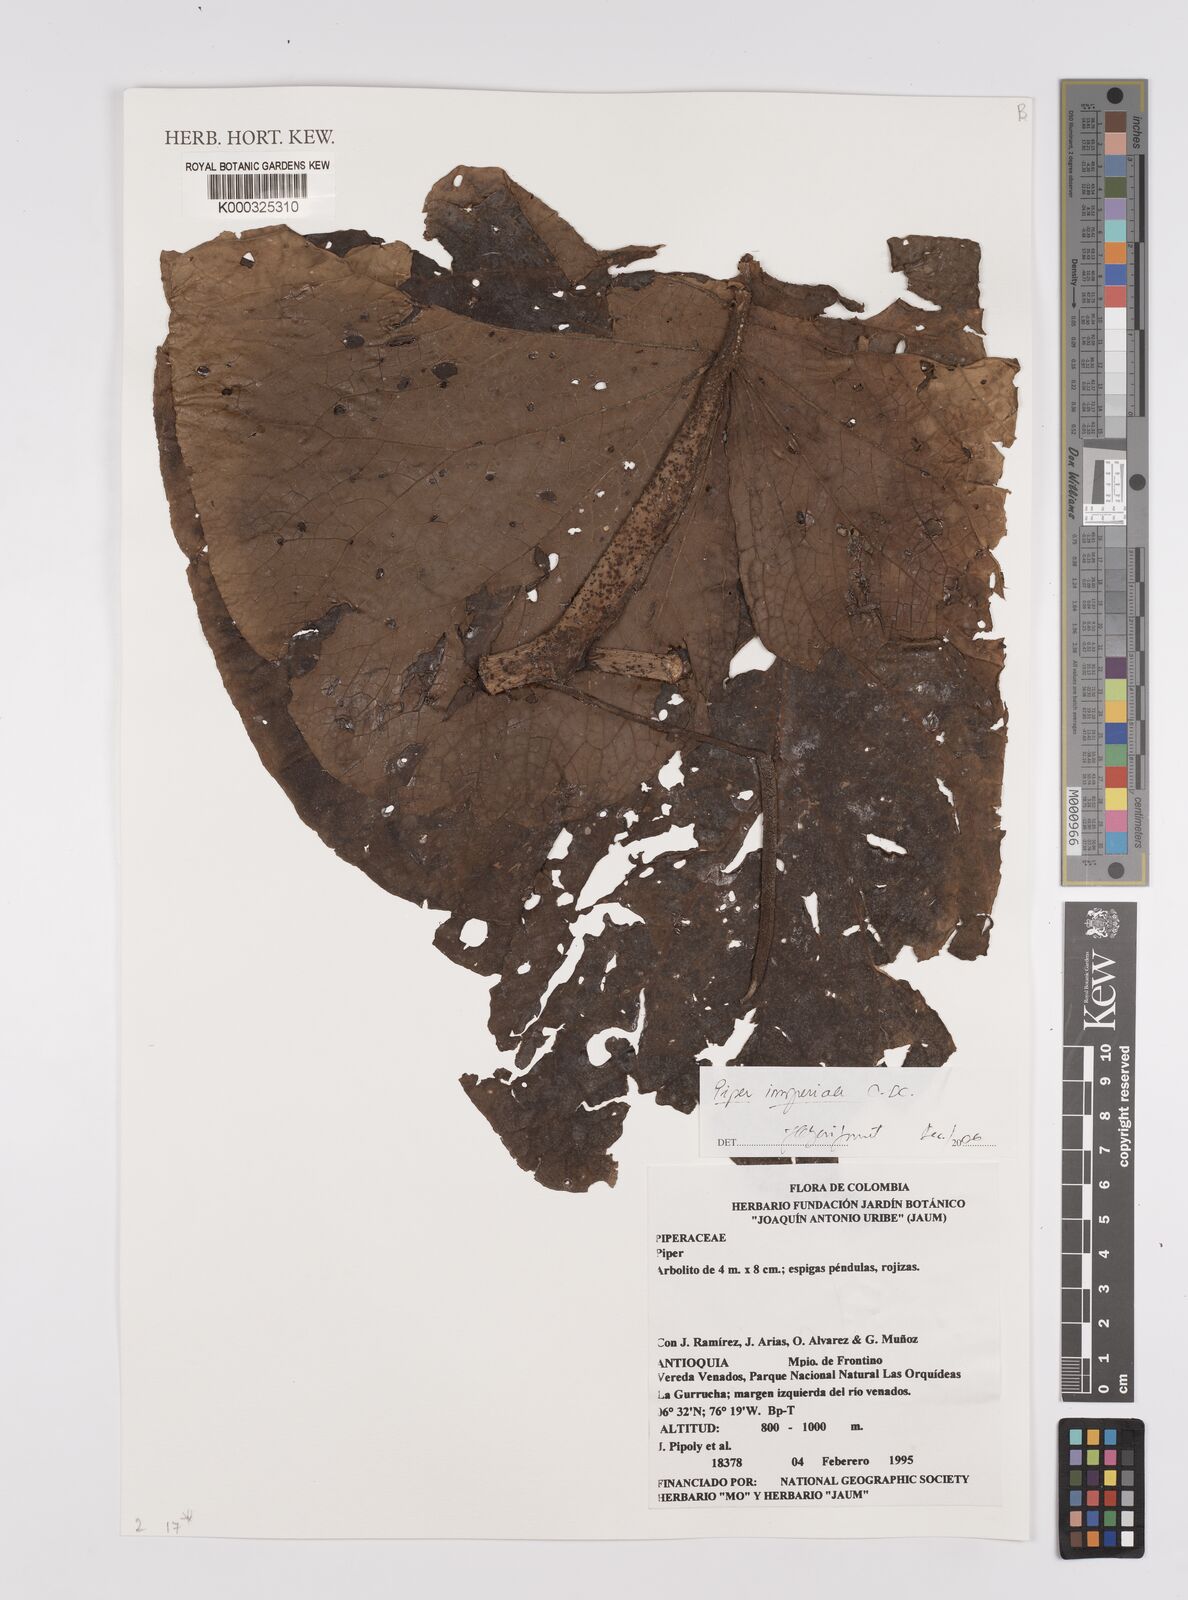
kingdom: Plantae
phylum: Tracheophyta
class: Magnoliopsida
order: Piperales
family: Piperaceae
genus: Piper
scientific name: Piper imperiale
